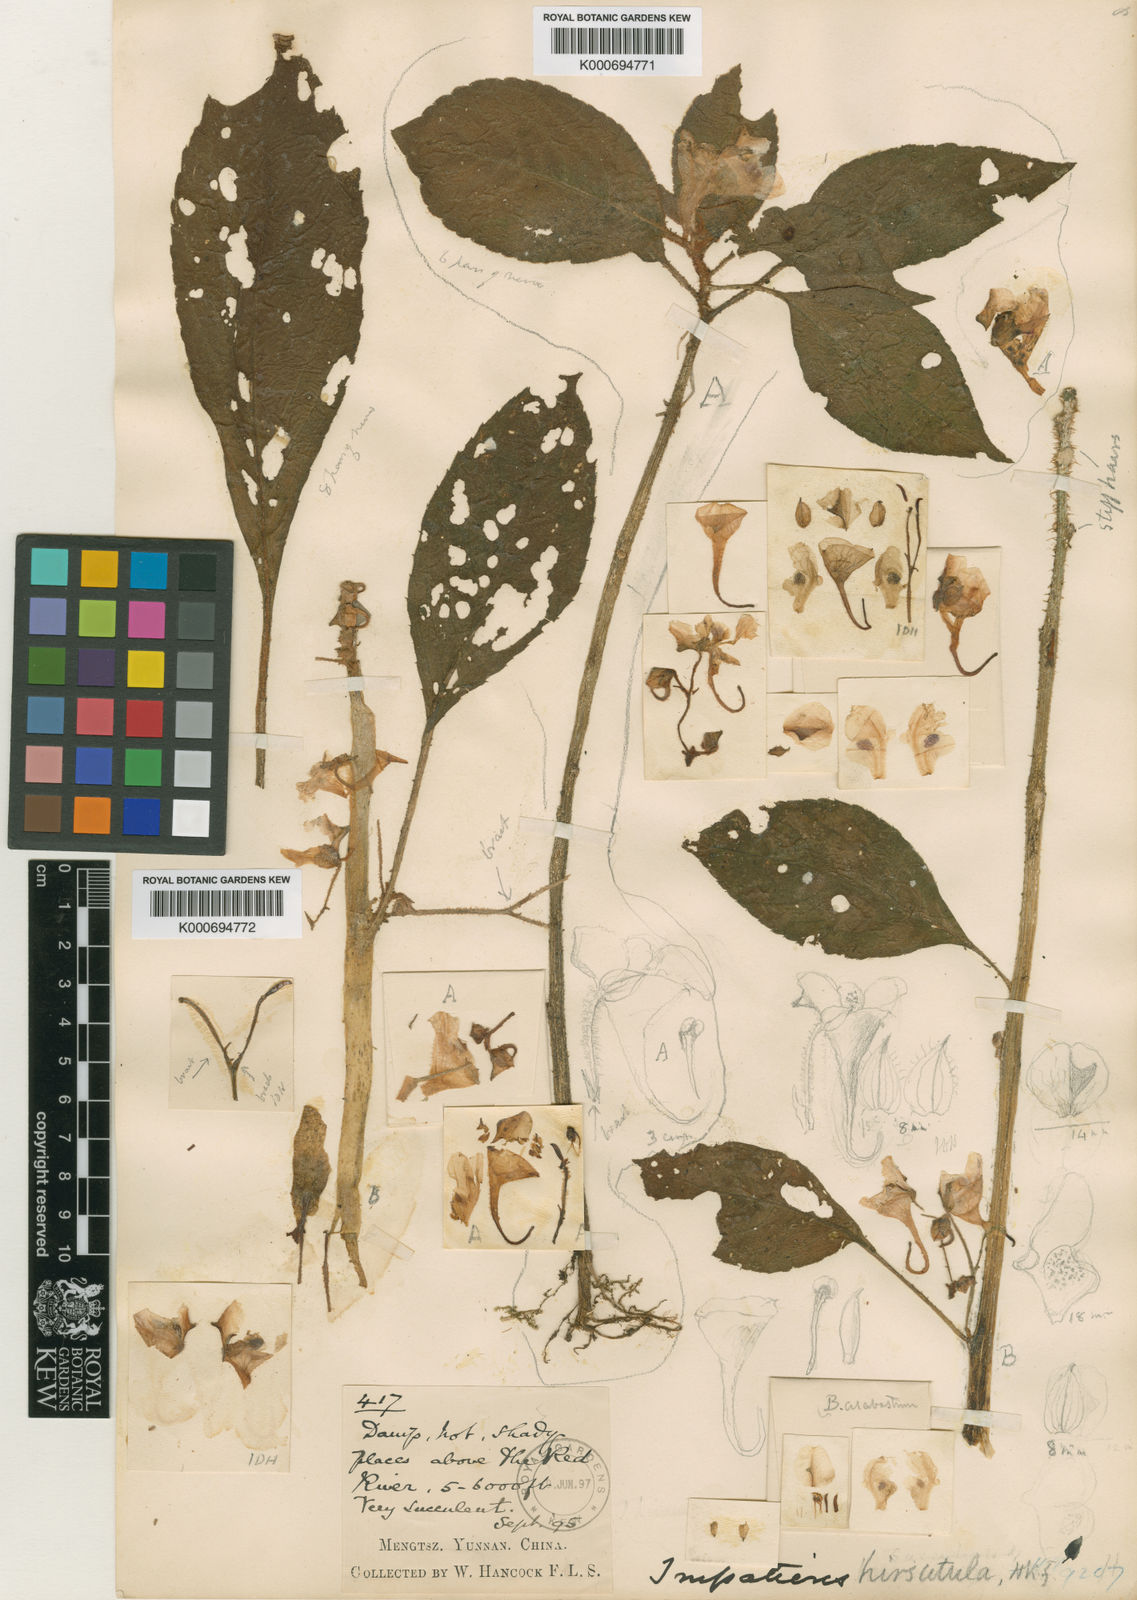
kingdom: Plantae
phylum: Tracheophyta
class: Magnoliopsida
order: Ericales
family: Balsaminaceae
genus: Impatiens
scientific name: Impatiens
